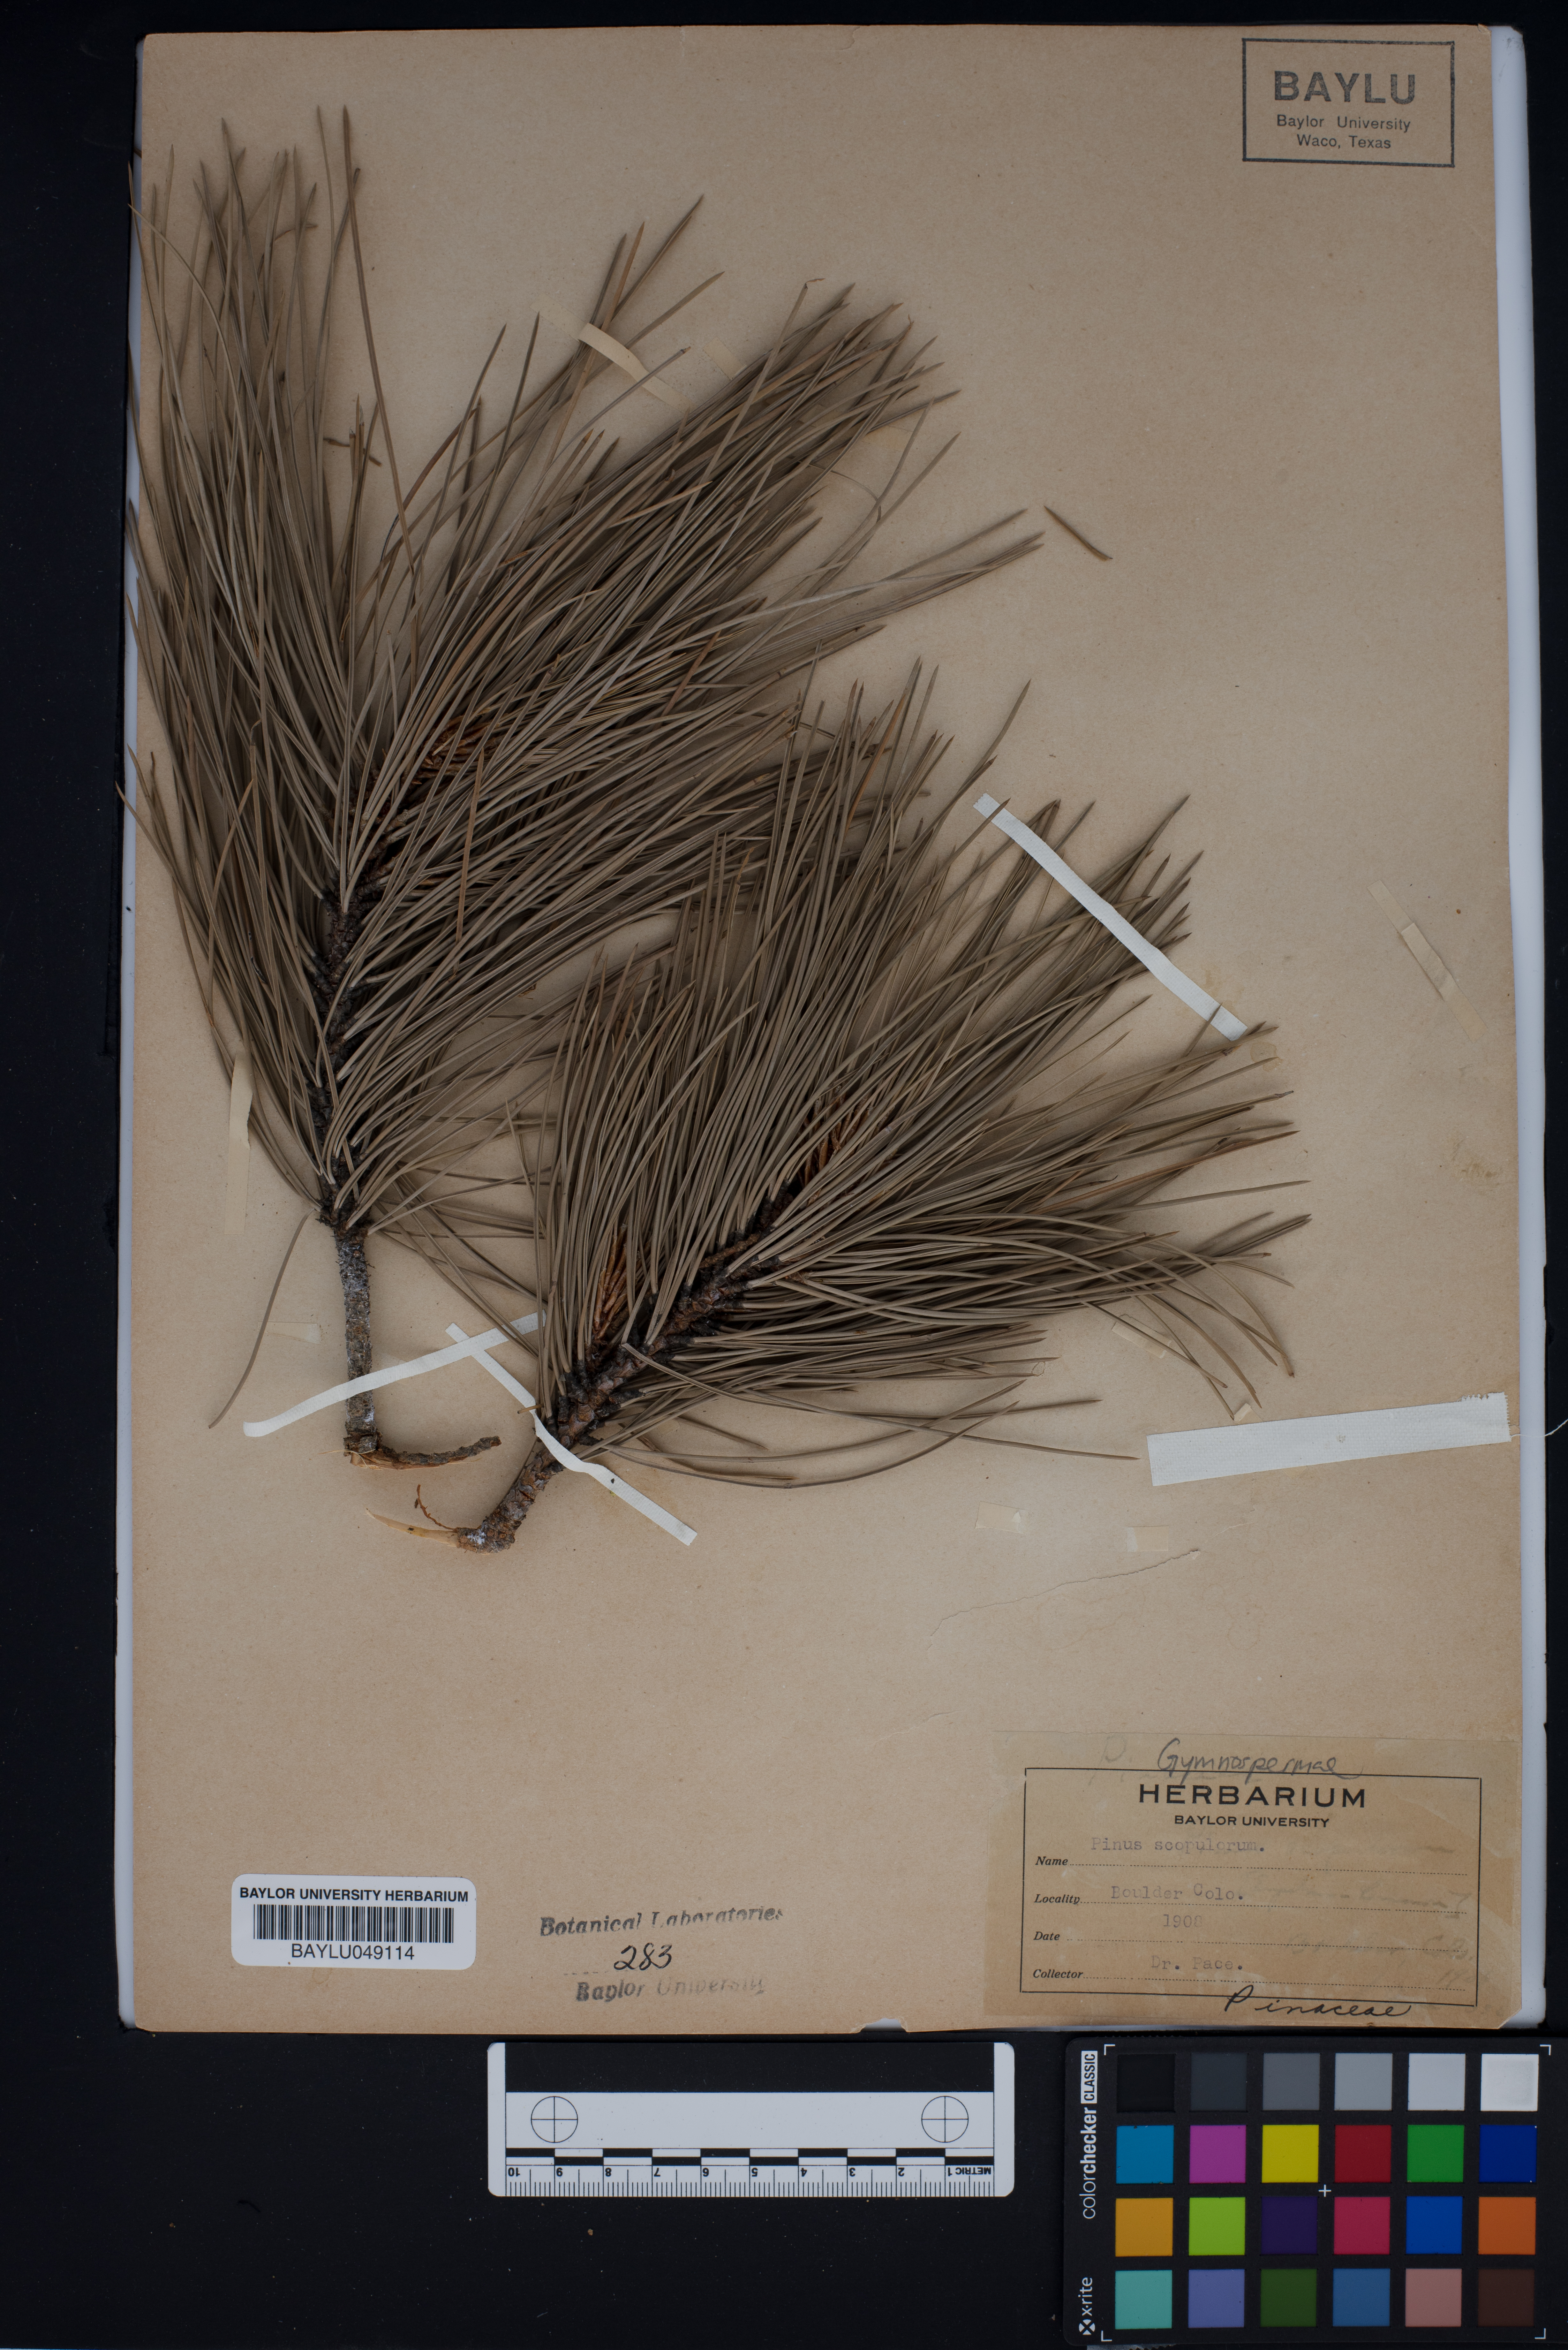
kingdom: Plantae
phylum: Tracheophyta
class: Pinopsida
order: Pinales
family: Pinaceae
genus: Pinus
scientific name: Pinus ponderosa
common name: Western yellow-pine
